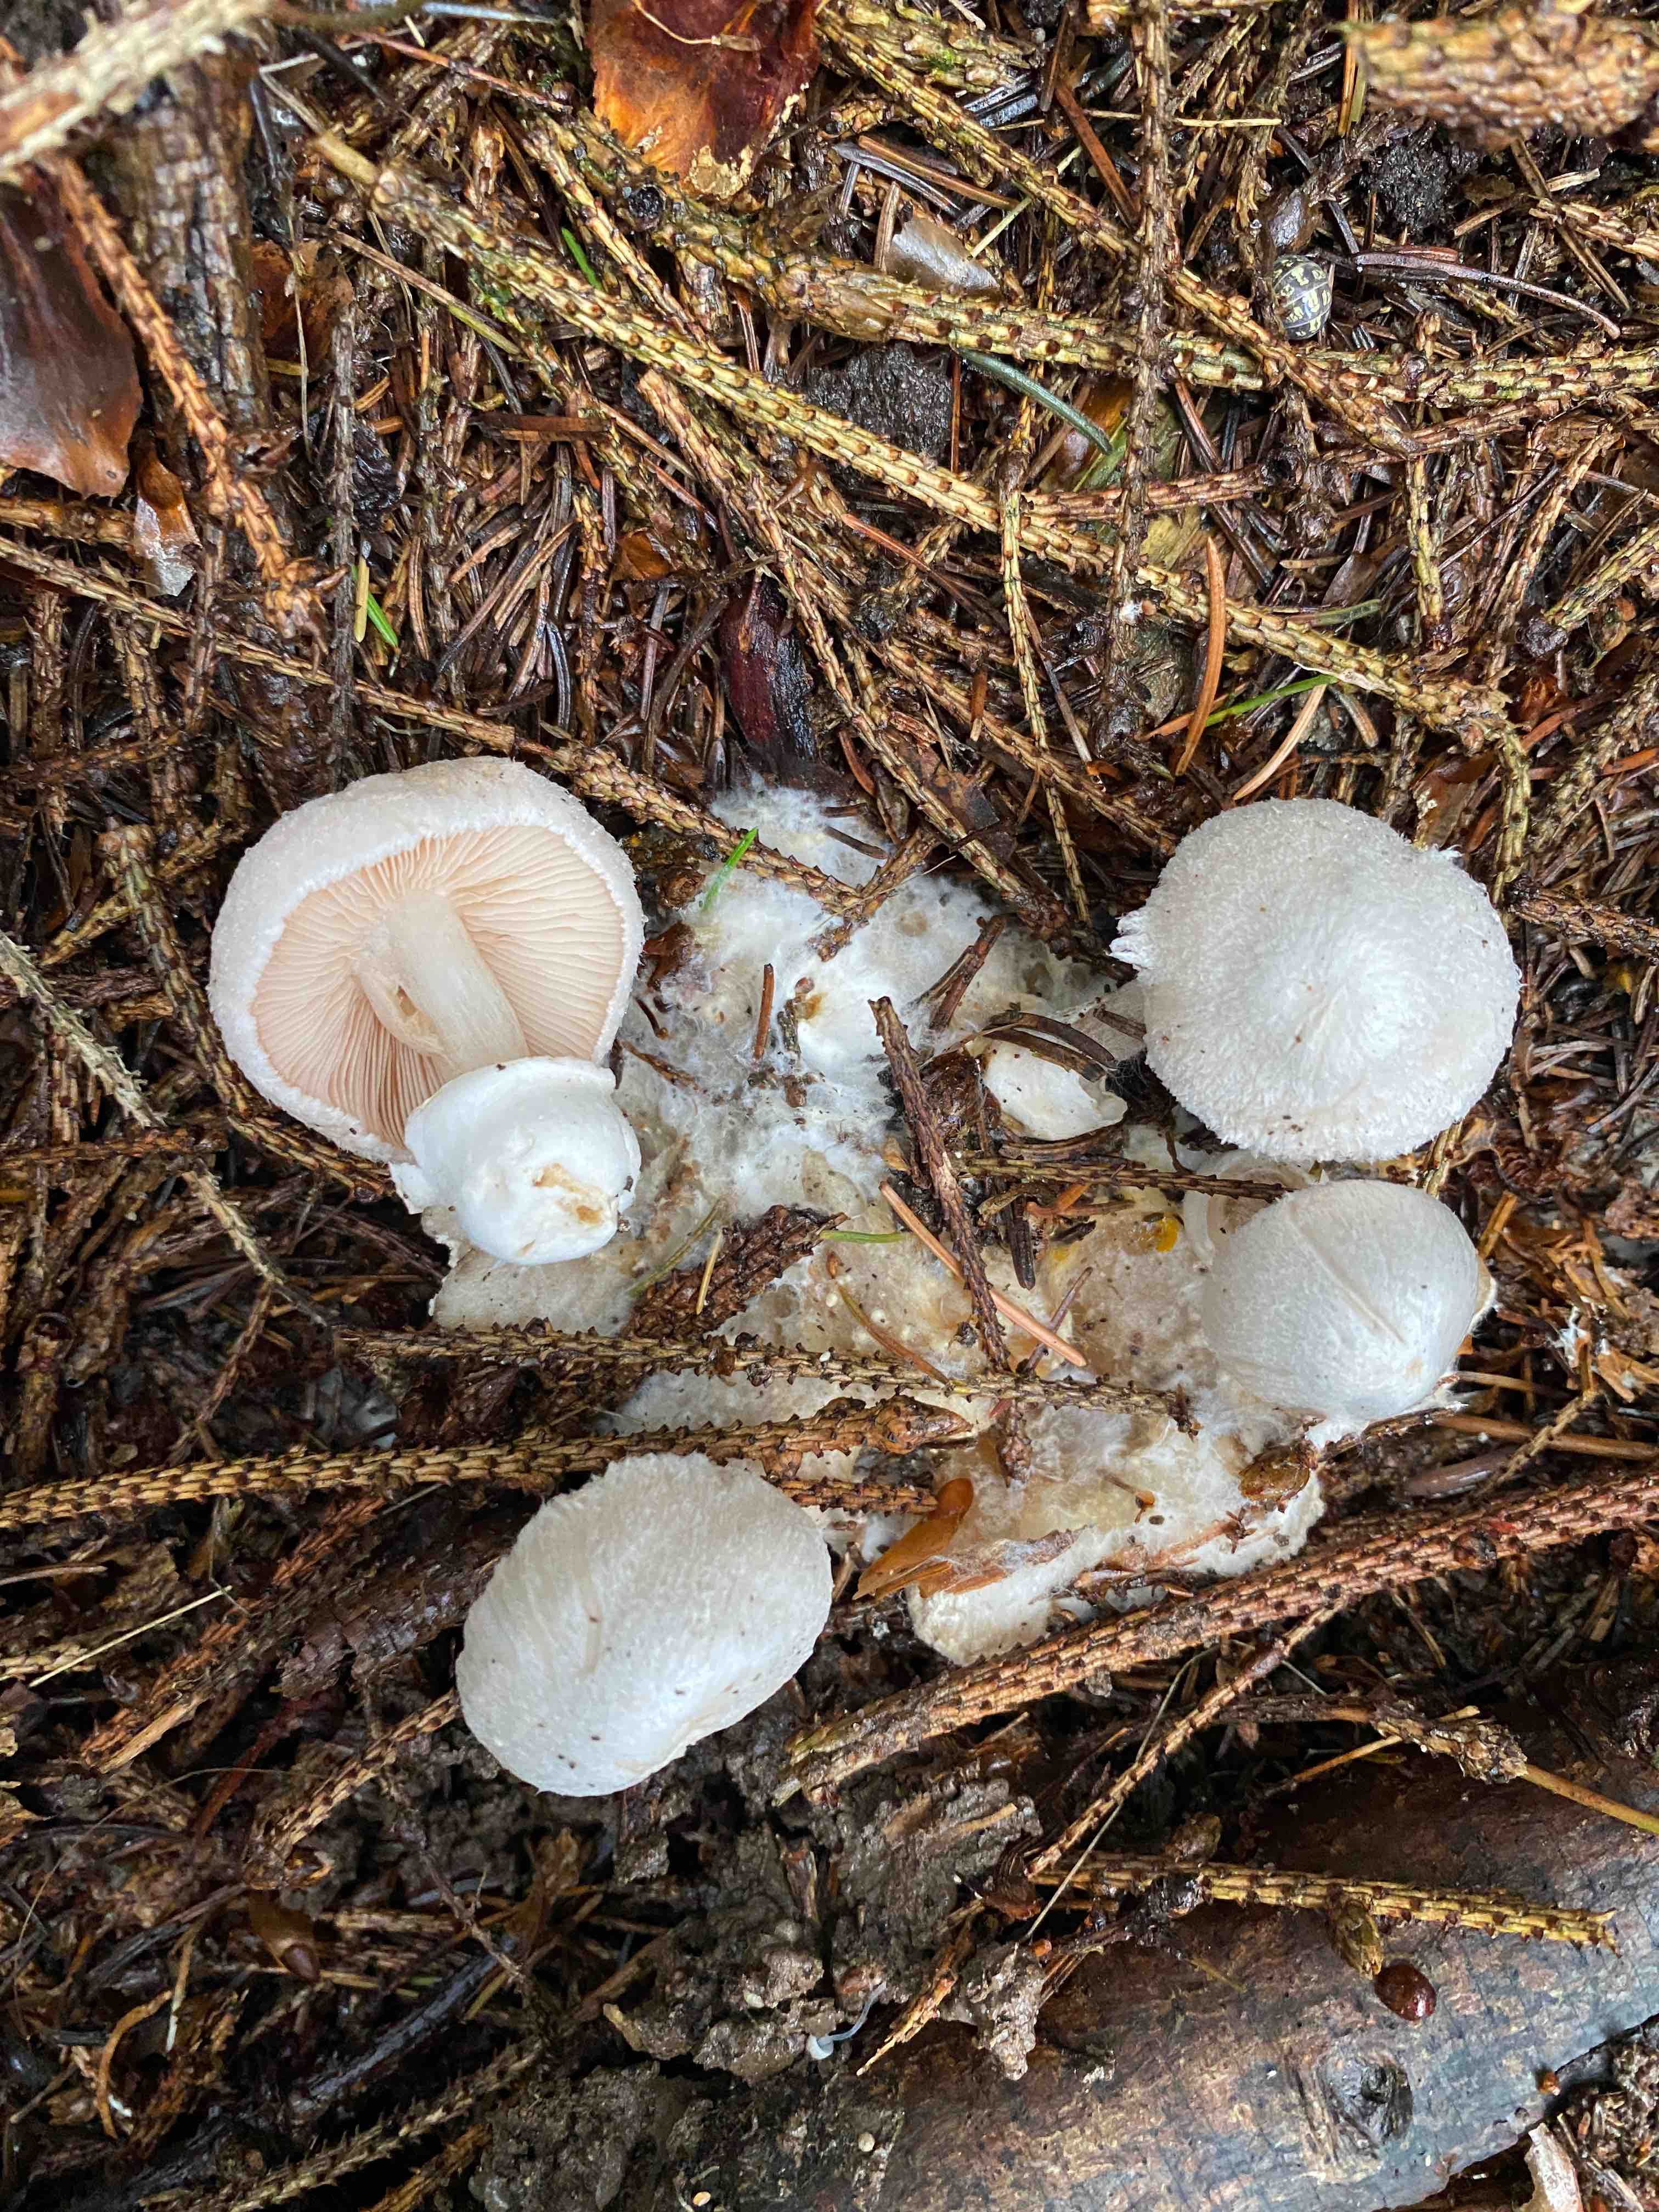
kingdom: Fungi
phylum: Basidiomycota
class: Agaricomycetes
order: Agaricales
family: Pluteaceae
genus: Volvariella
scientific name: Volvariella surrecta
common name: snyltende posesvamp
